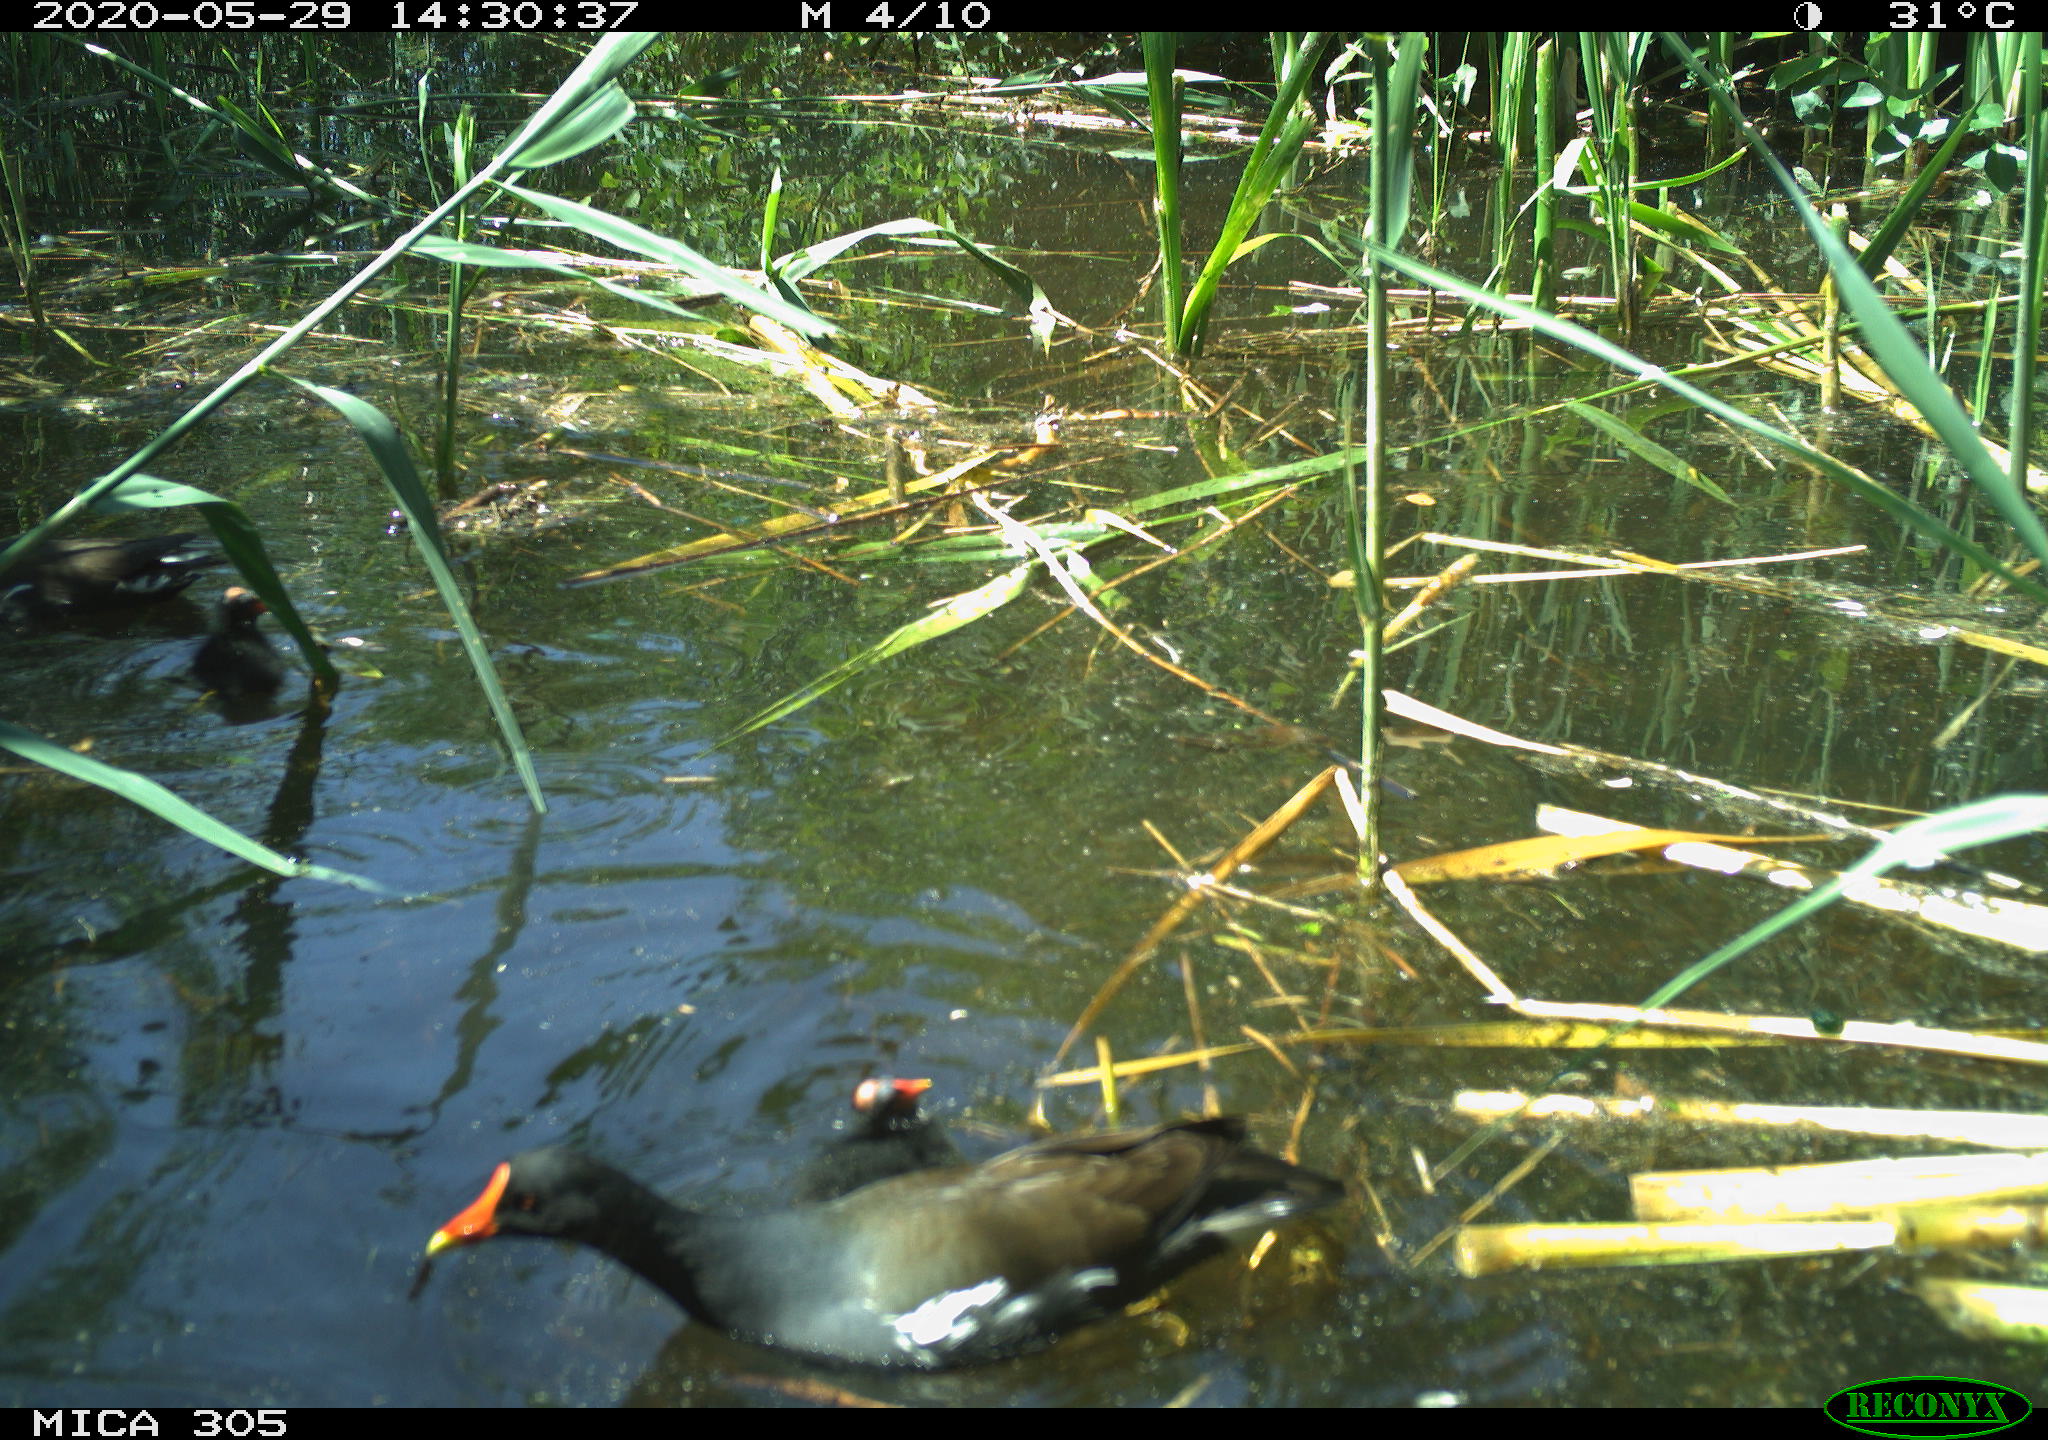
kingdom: Animalia
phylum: Chordata
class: Aves
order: Gruiformes
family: Rallidae
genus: Gallinula
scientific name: Gallinula chloropus
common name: Common moorhen
